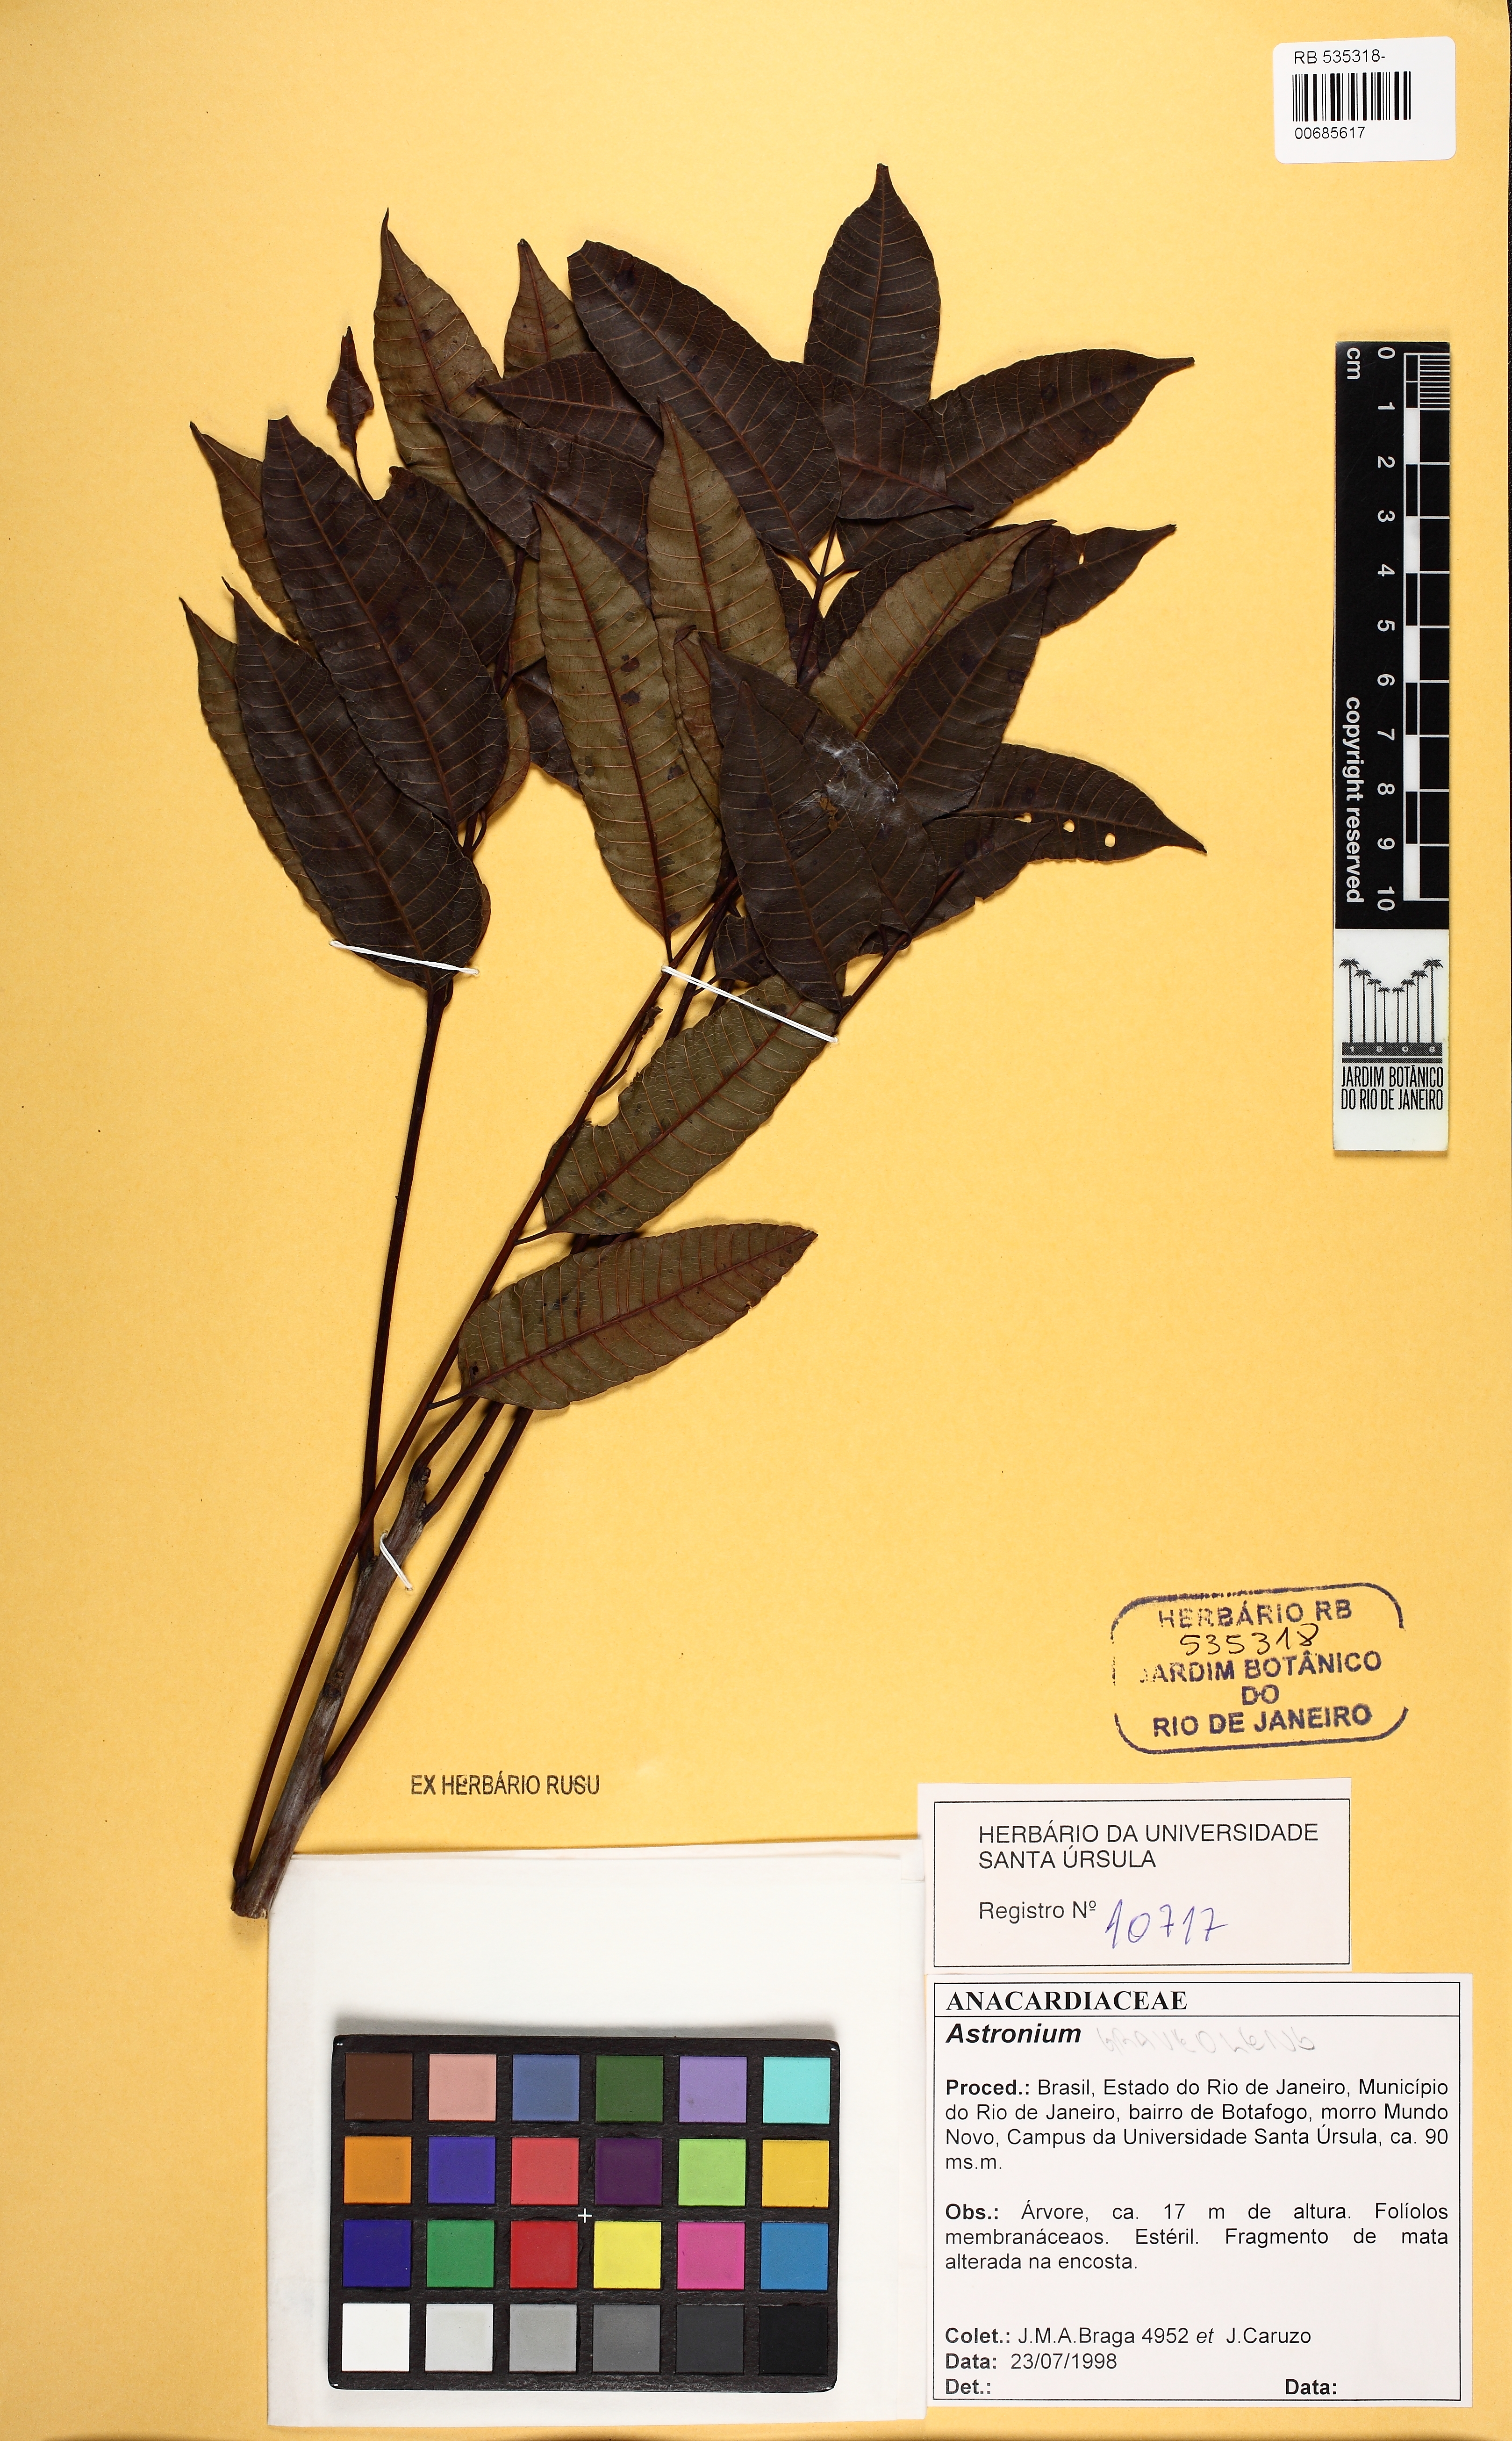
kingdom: Plantae
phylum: Tracheophyta
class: Magnoliopsida
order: Sapindales
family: Anacardiaceae
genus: Astronium
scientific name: Astronium graveolens
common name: Glassywood
